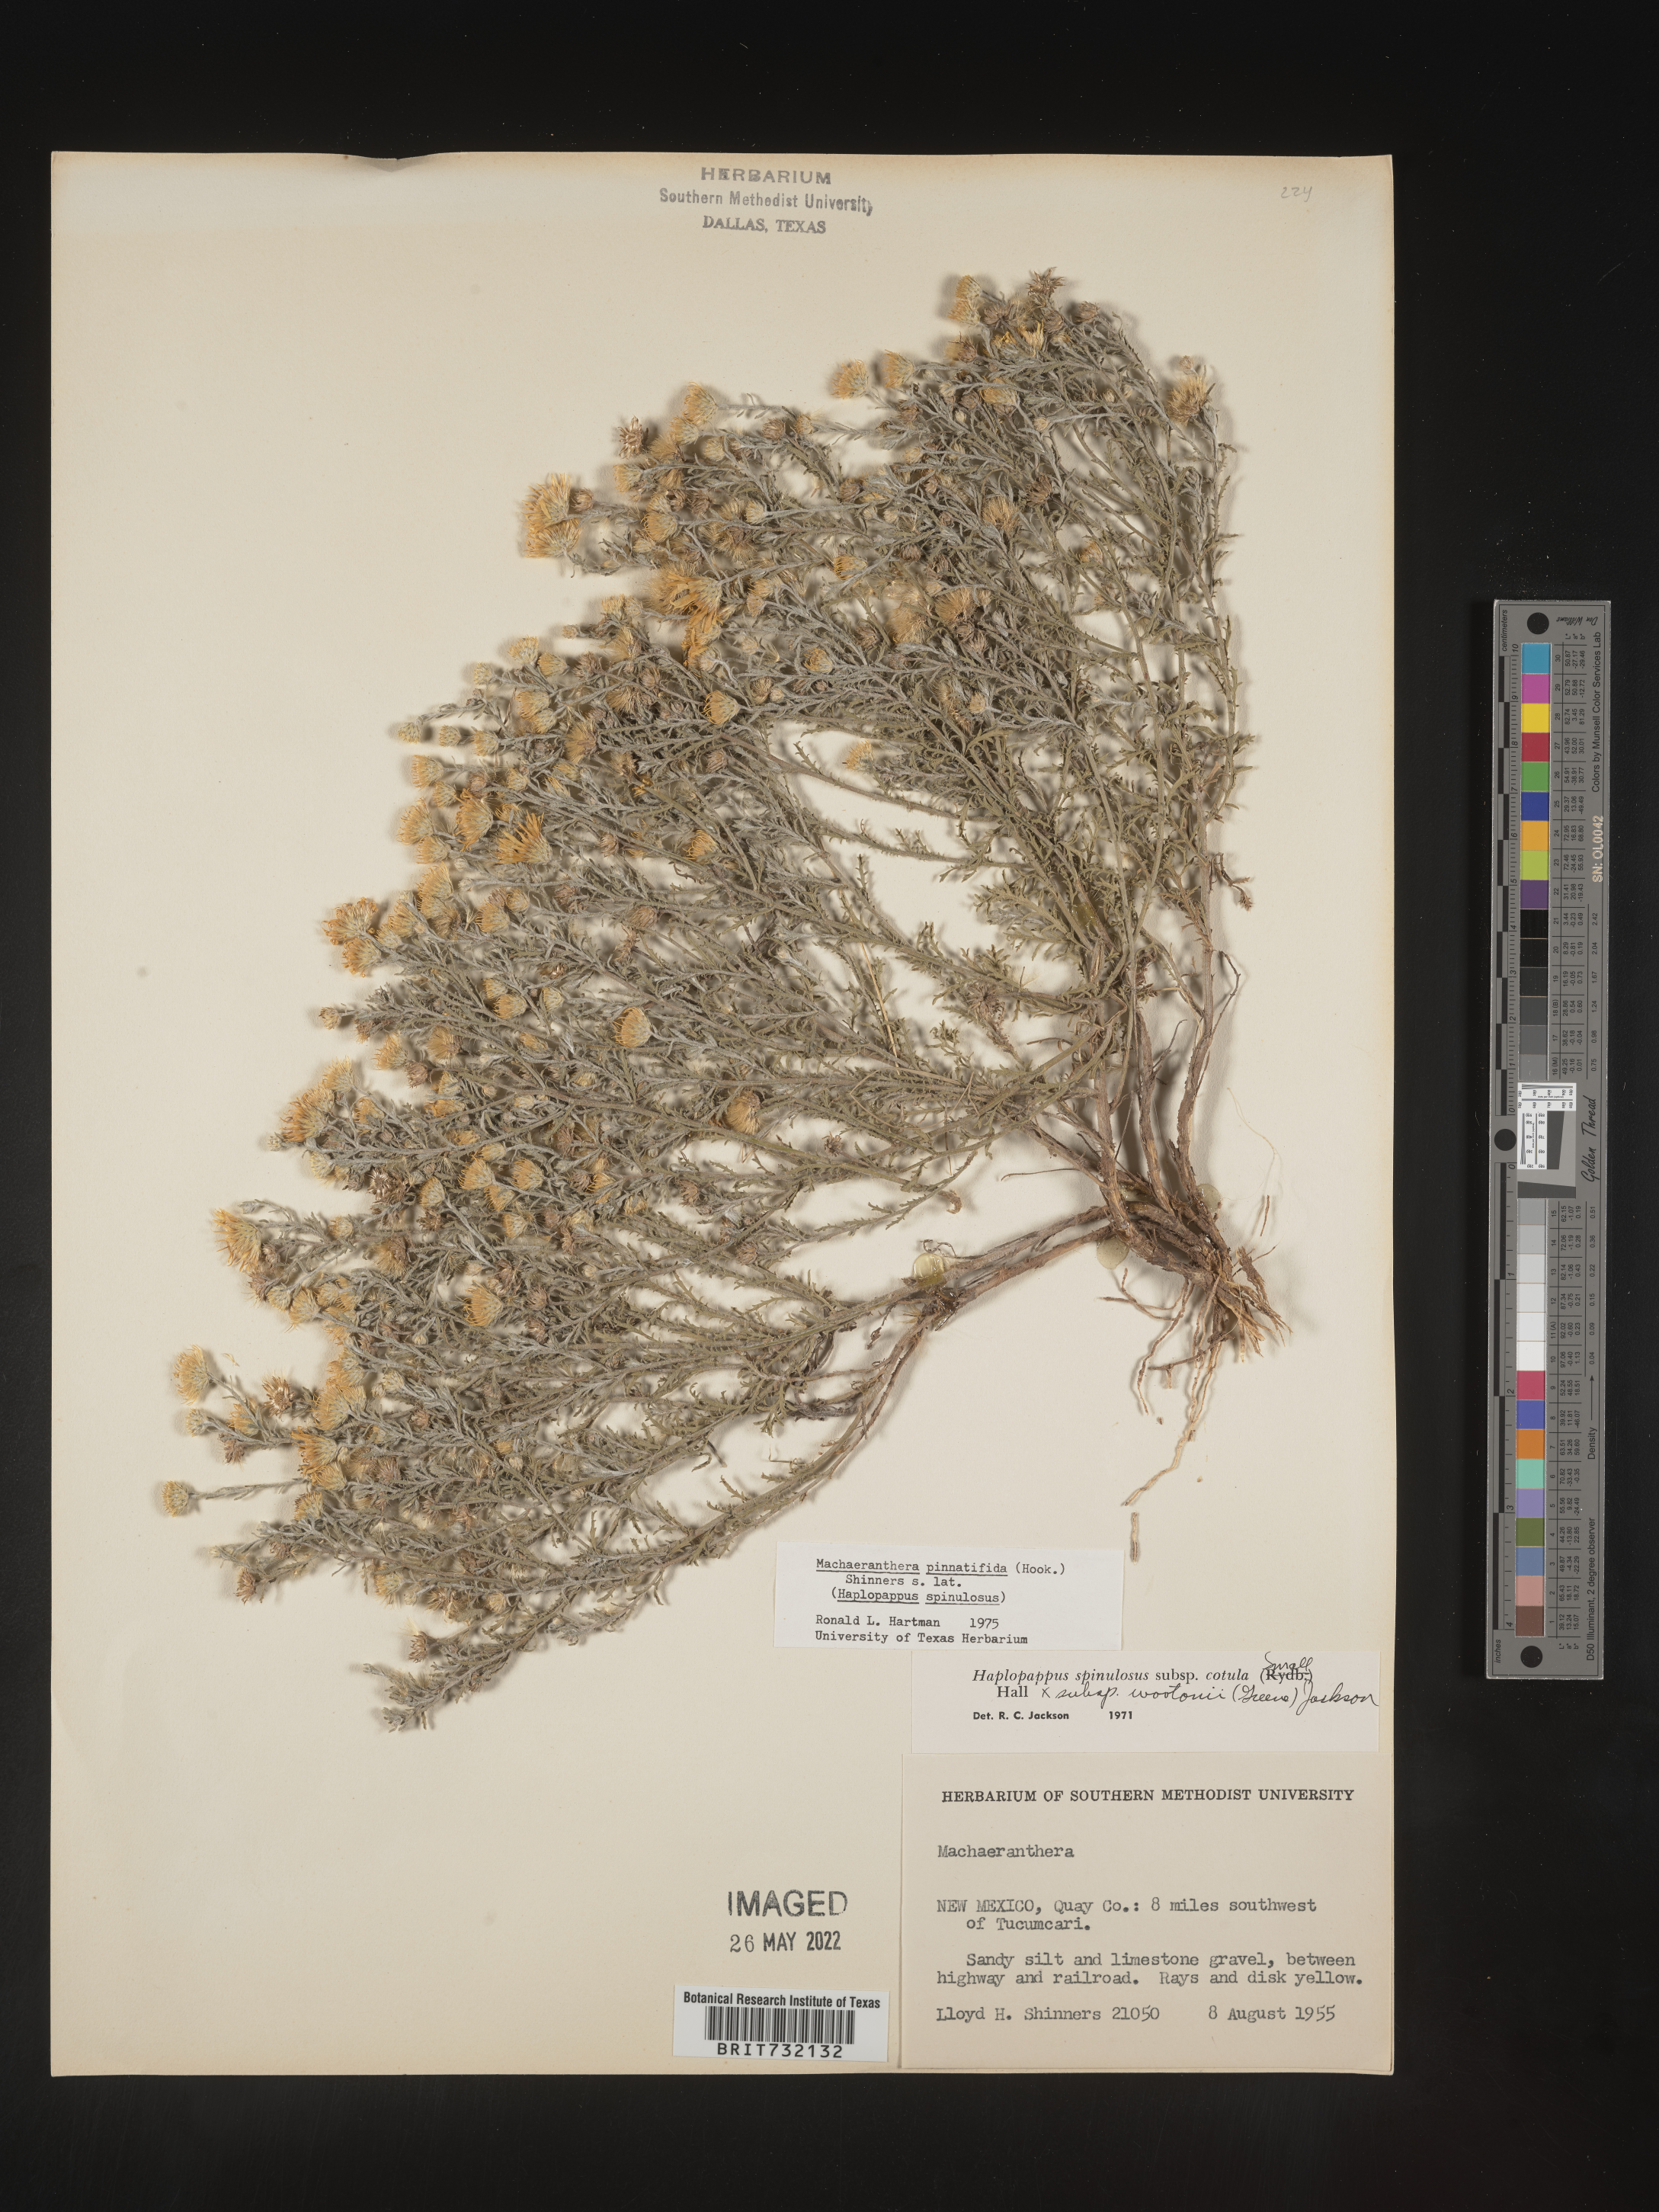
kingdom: Plantae
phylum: Tracheophyta
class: Magnoliopsida
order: Asterales
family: Asteraceae
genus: Xanthisma
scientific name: Xanthisma spinulosum
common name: Spiny goldenweed
